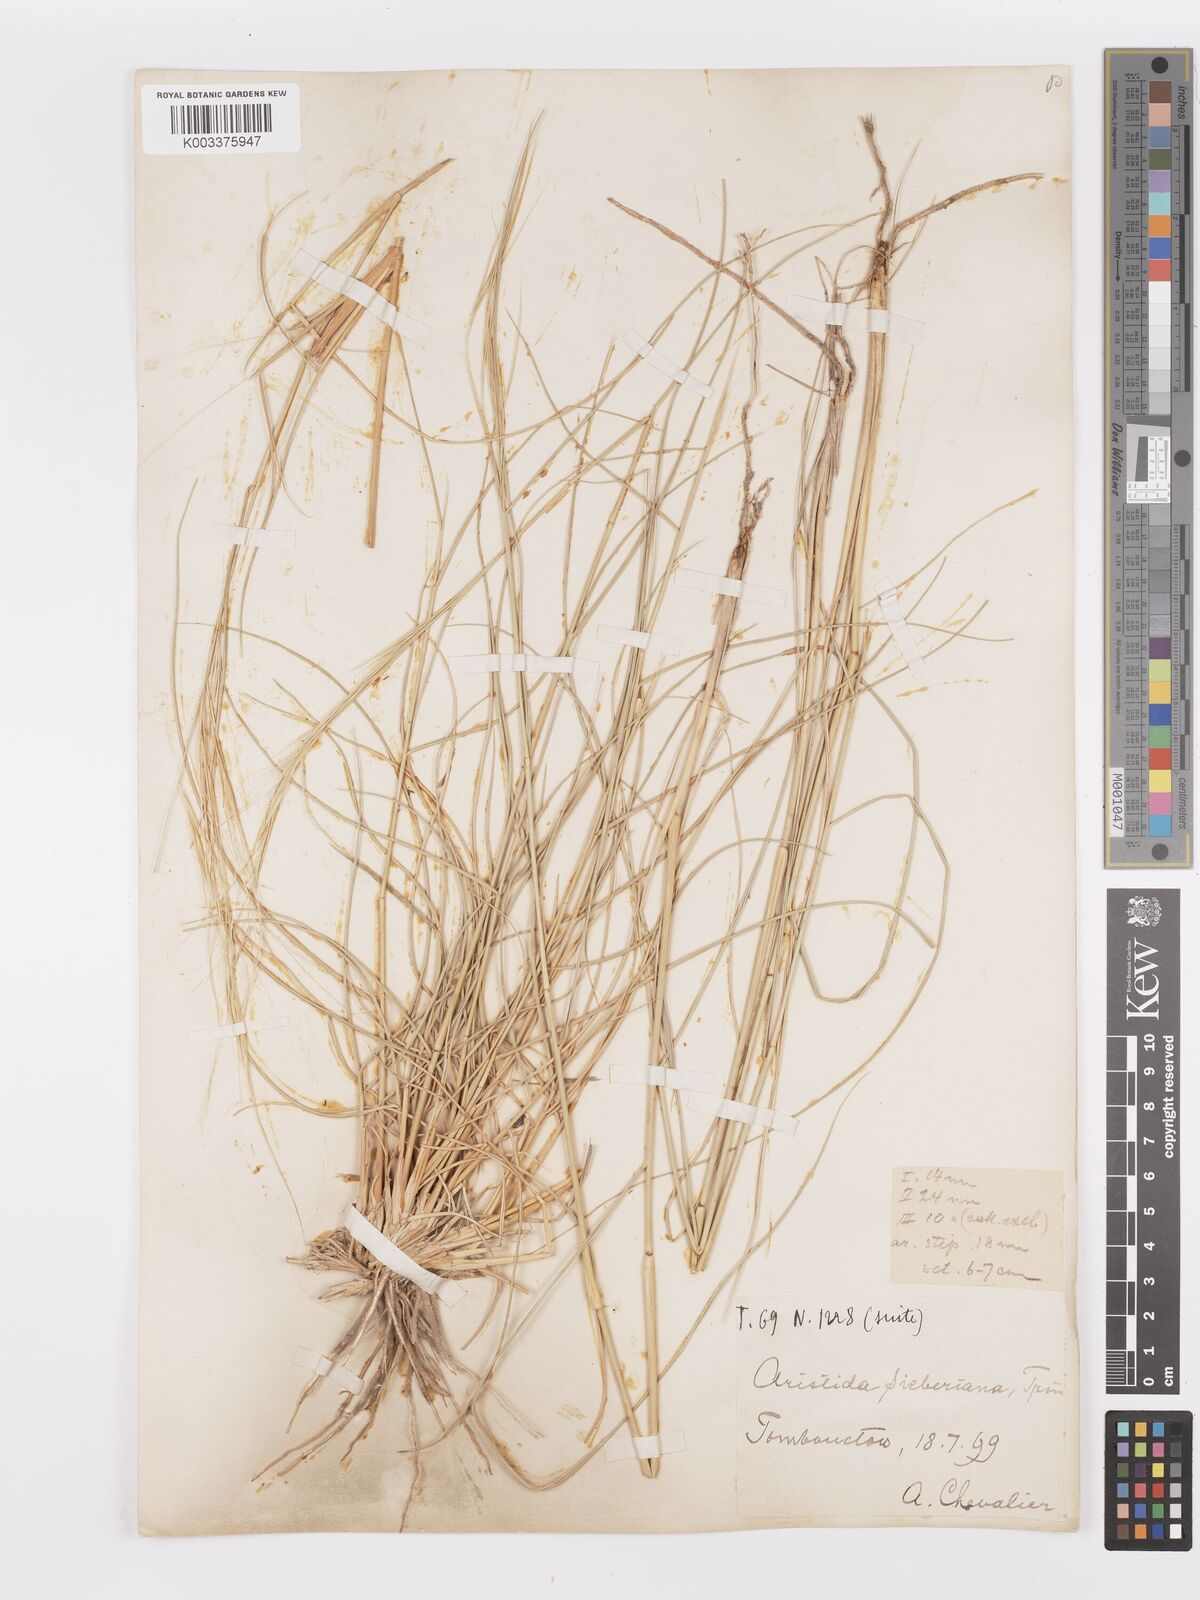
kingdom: Plantae
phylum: Tracheophyta
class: Liliopsida
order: Poales
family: Poaceae
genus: Aristida
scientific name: Aristida sieberiana
